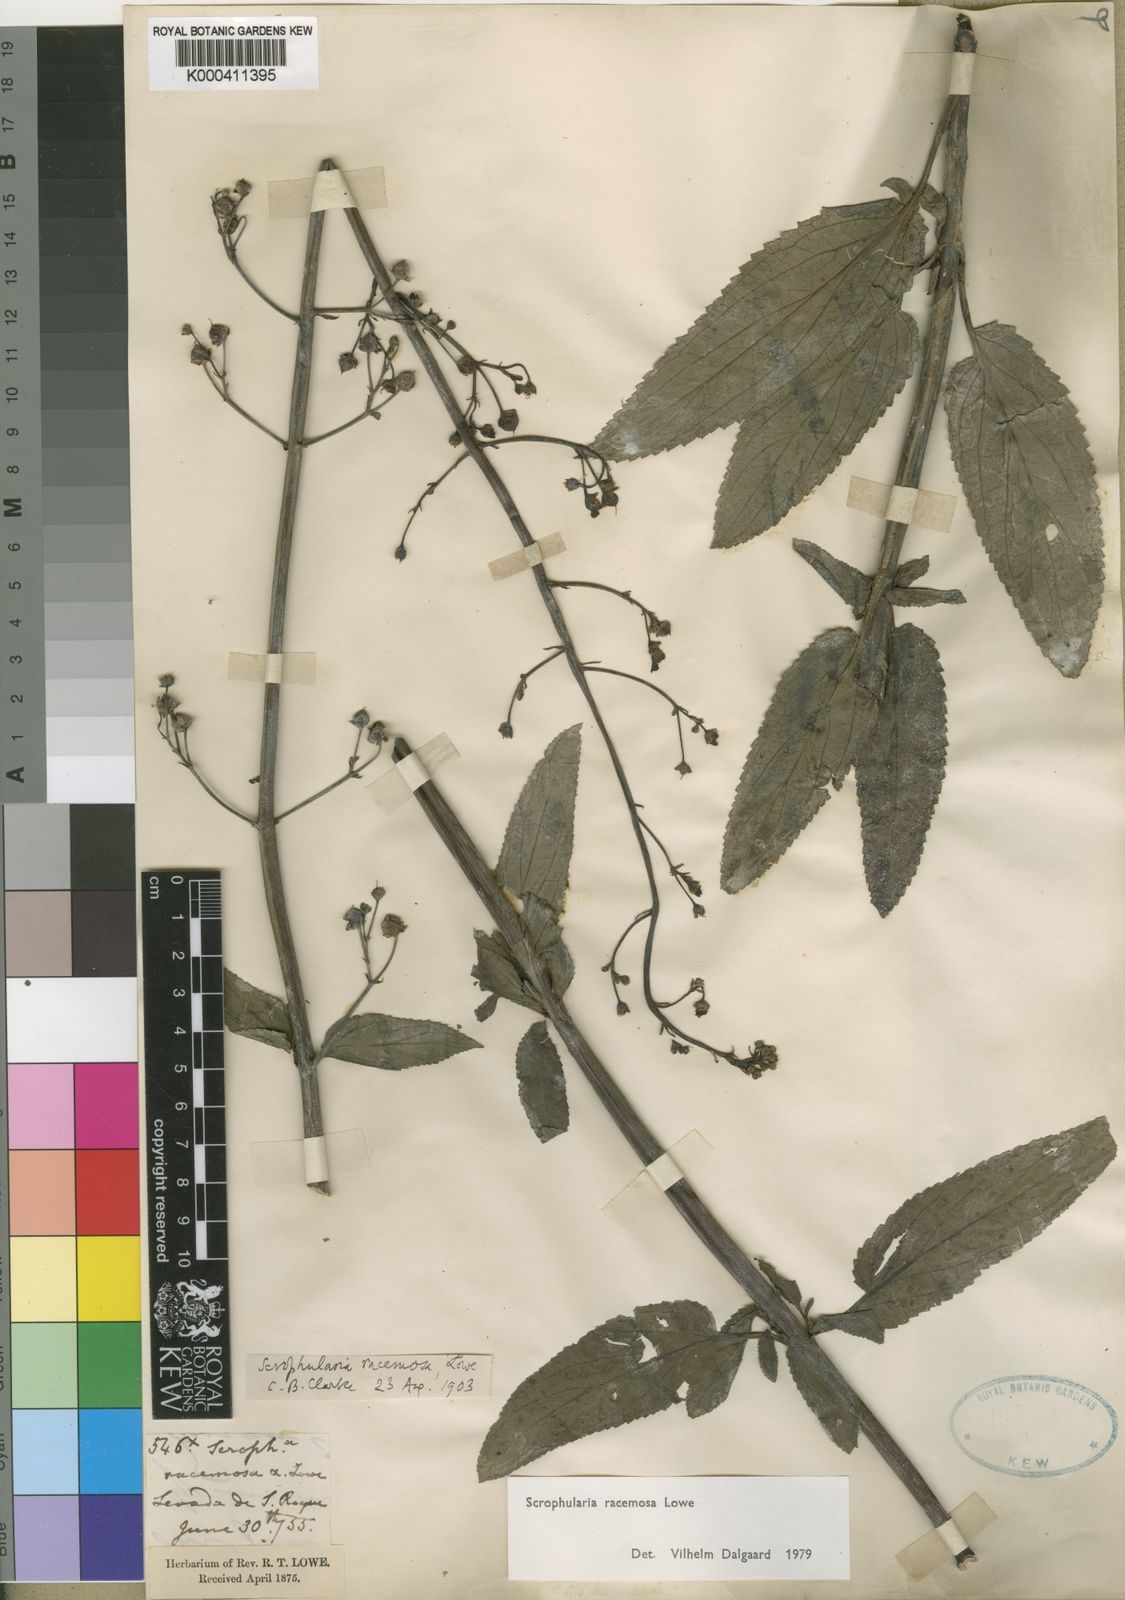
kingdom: Plantae
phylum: Tracheophyta
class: Magnoliopsida
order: Lamiales
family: Scrophulariaceae
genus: Scrophularia
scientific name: Scrophularia racemosa
